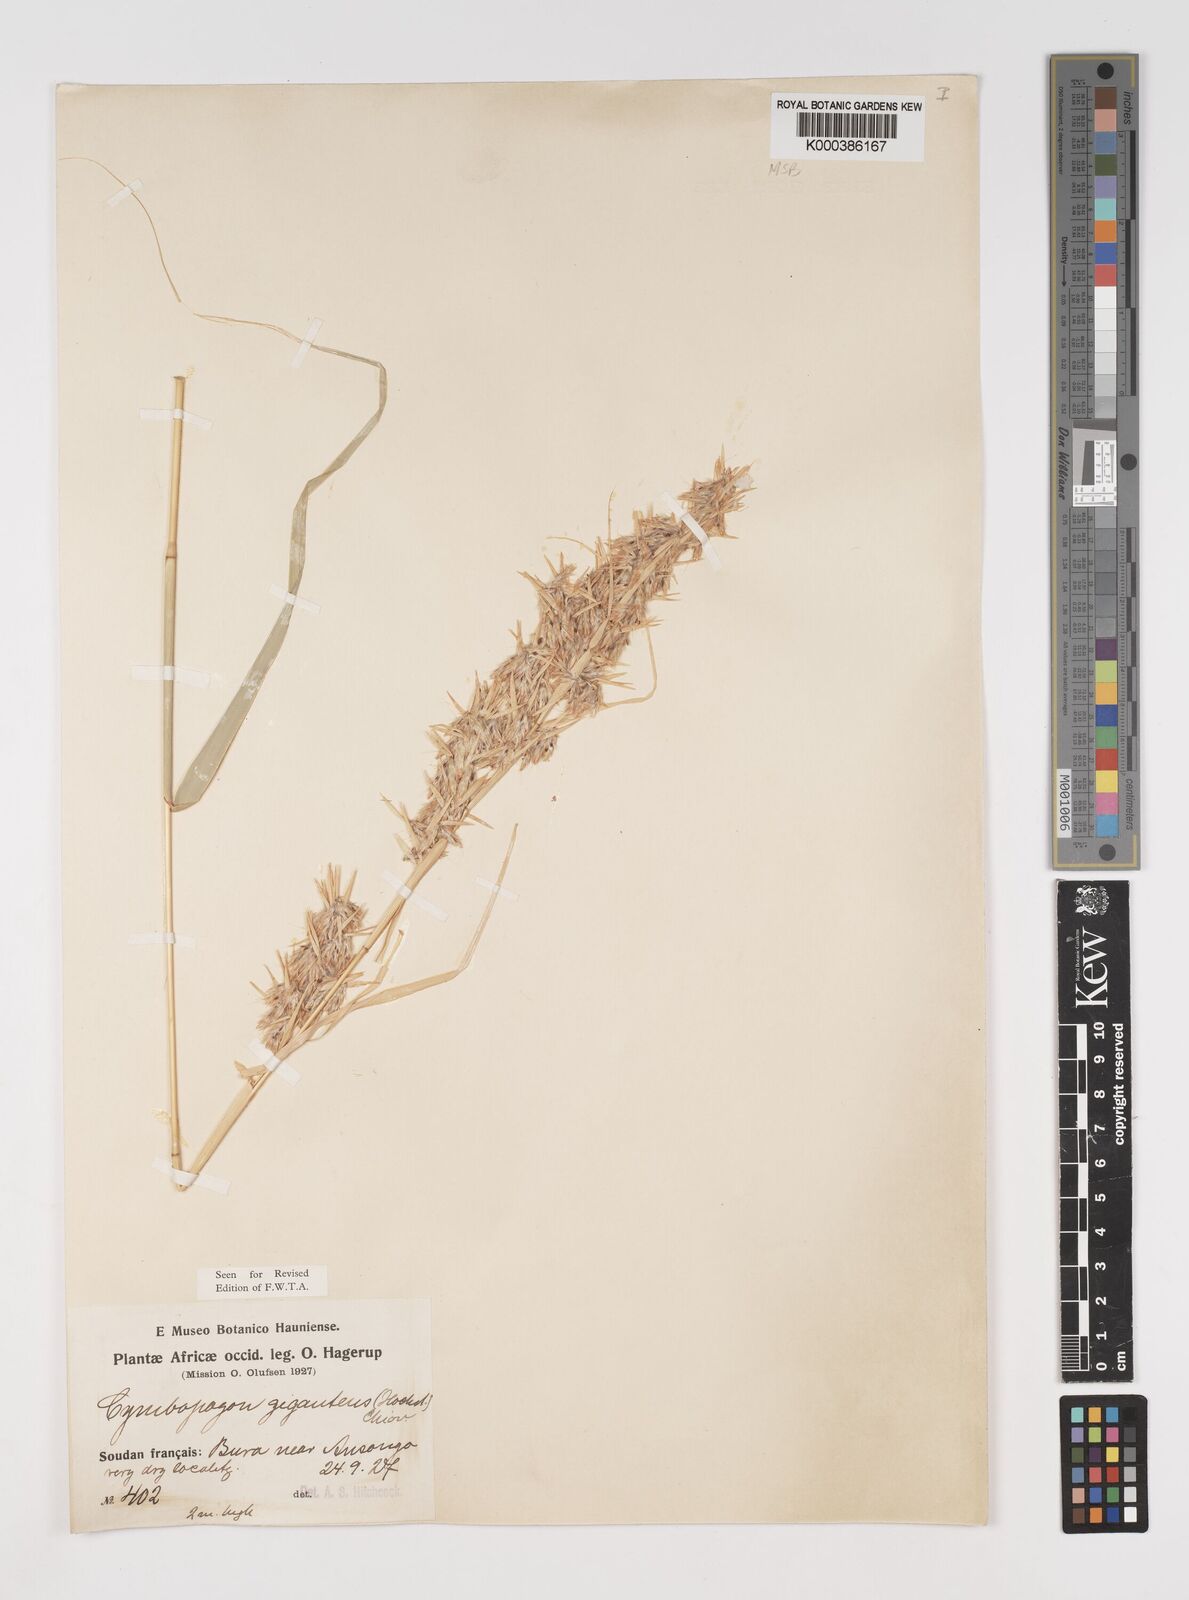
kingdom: Plantae
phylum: Tracheophyta
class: Liliopsida
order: Poales
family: Poaceae
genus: Cymbopogon
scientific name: Cymbopogon giganteus
